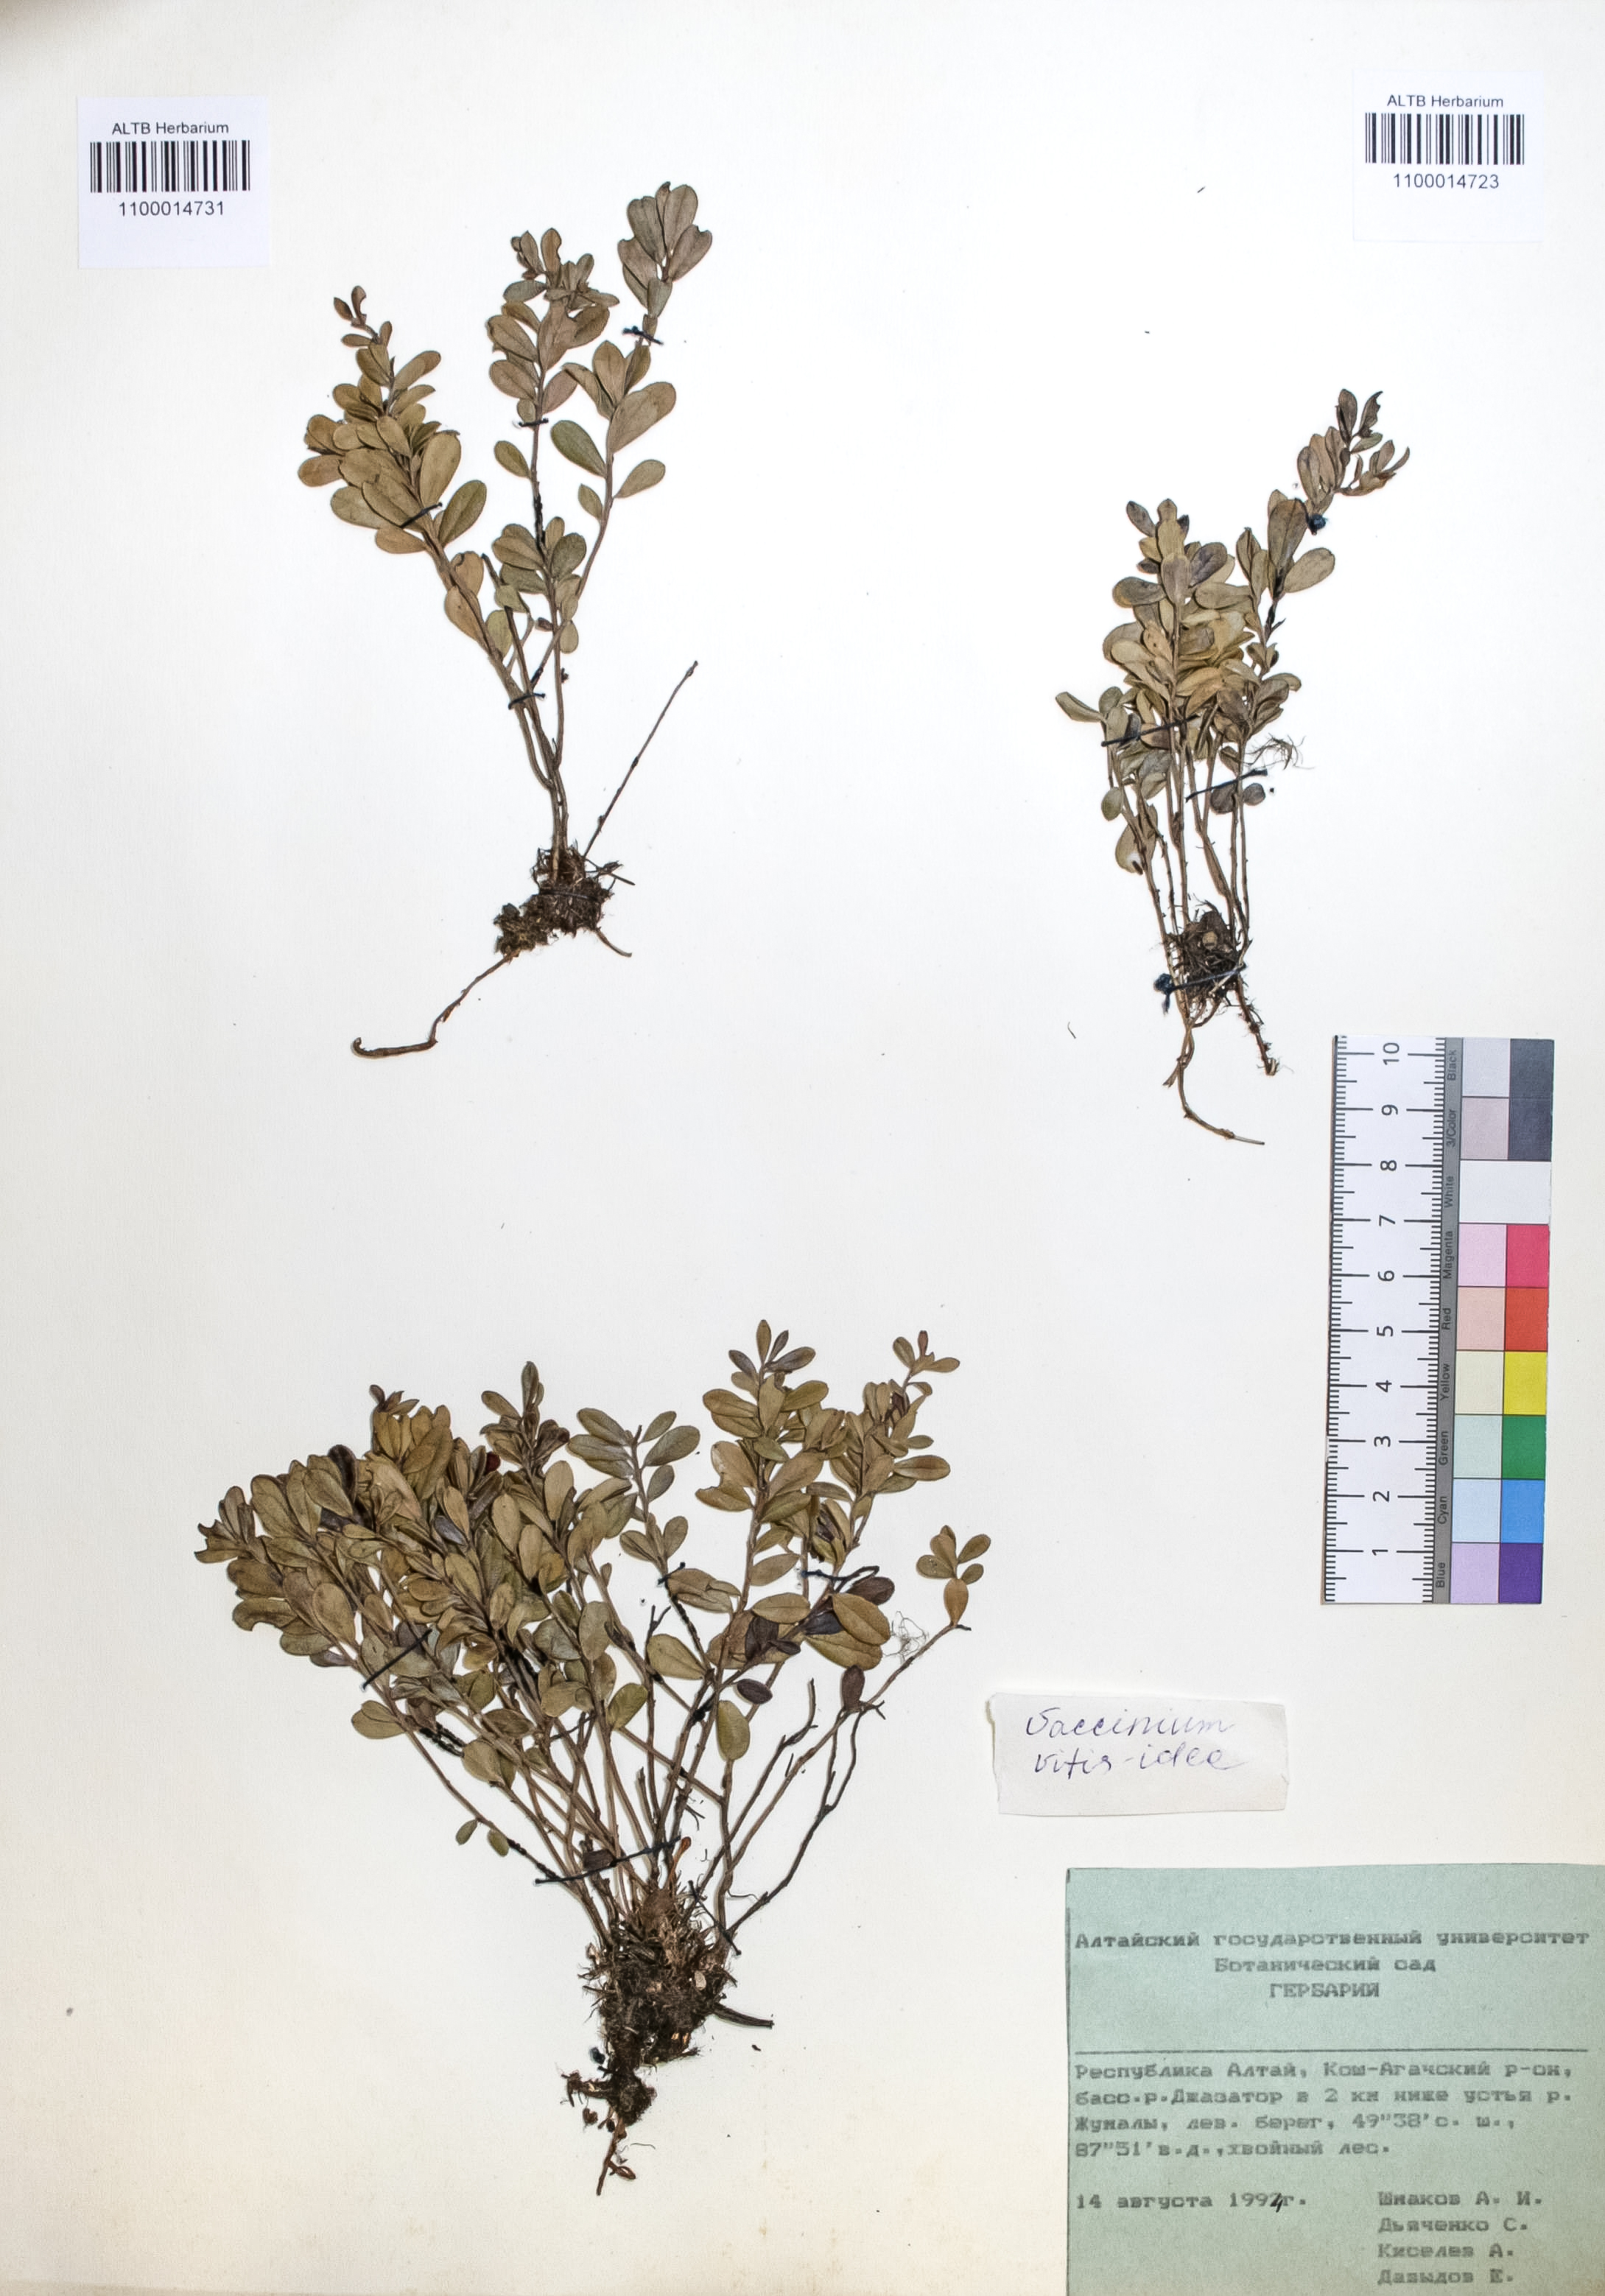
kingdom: Plantae
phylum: Tracheophyta
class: Magnoliopsida
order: Ericales
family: Ericaceae
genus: Vaccinium
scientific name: Vaccinium vitis-idaea
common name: Cowberry
